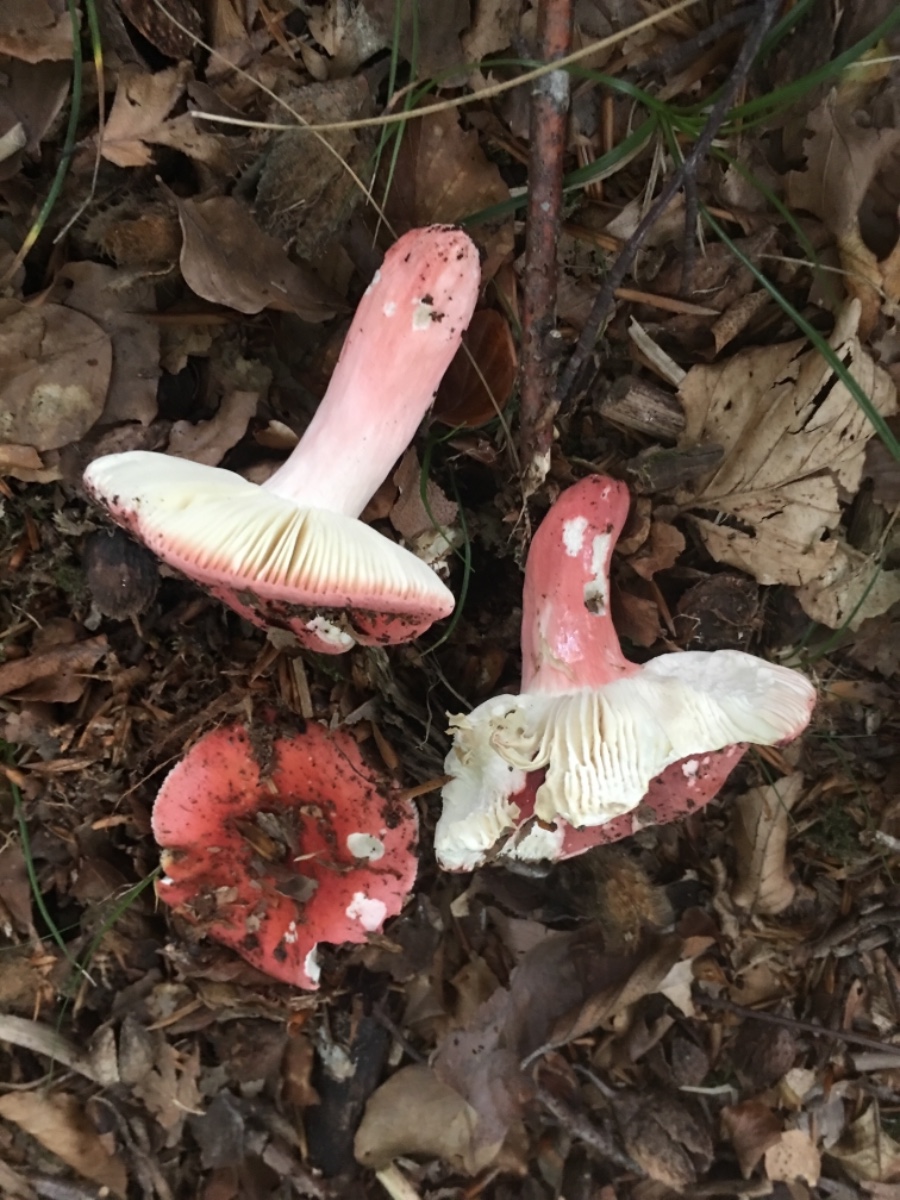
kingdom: Fungi
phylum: Basidiomycota
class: Agaricomycetes
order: Russulales
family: Russulaceae
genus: Russula
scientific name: Russula rosea
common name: fastkødet skørhat
